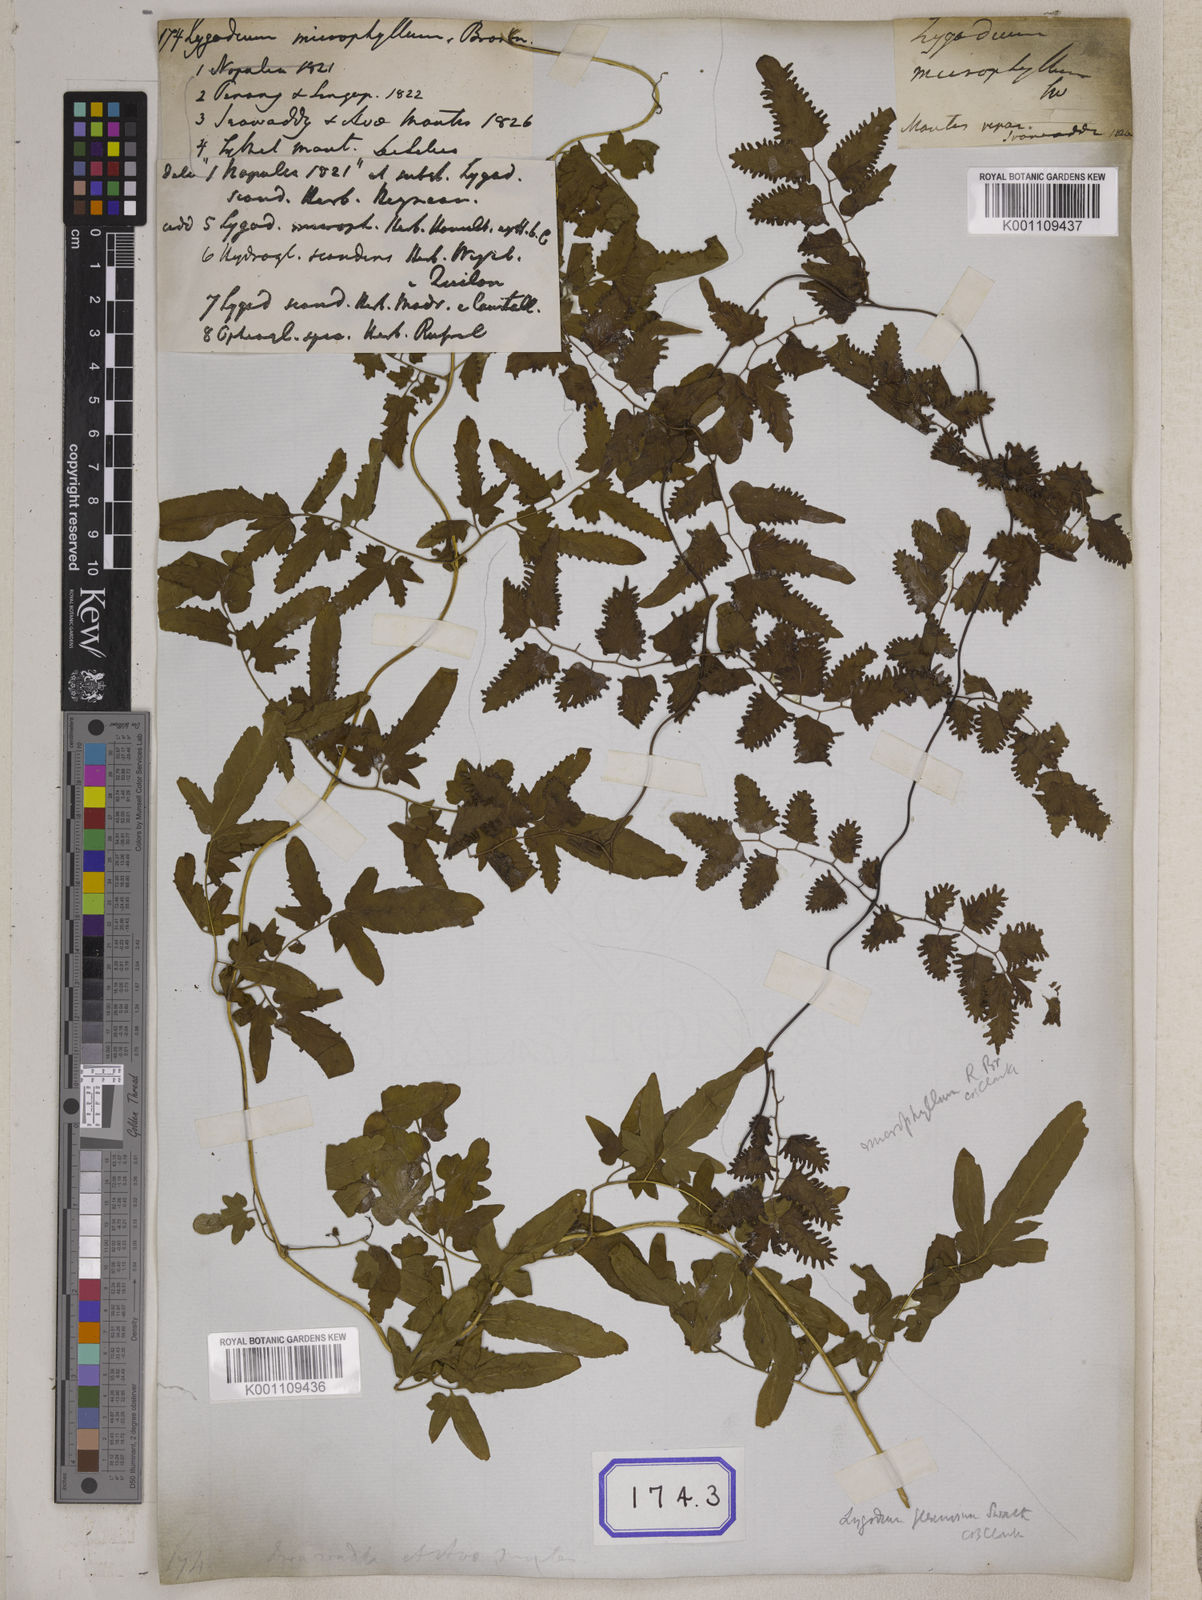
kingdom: Plantae
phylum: Tracheophyta
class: Polypodiopsida
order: Schizaeales
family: Lygodiaceae
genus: Lygodium
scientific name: Lygodium
